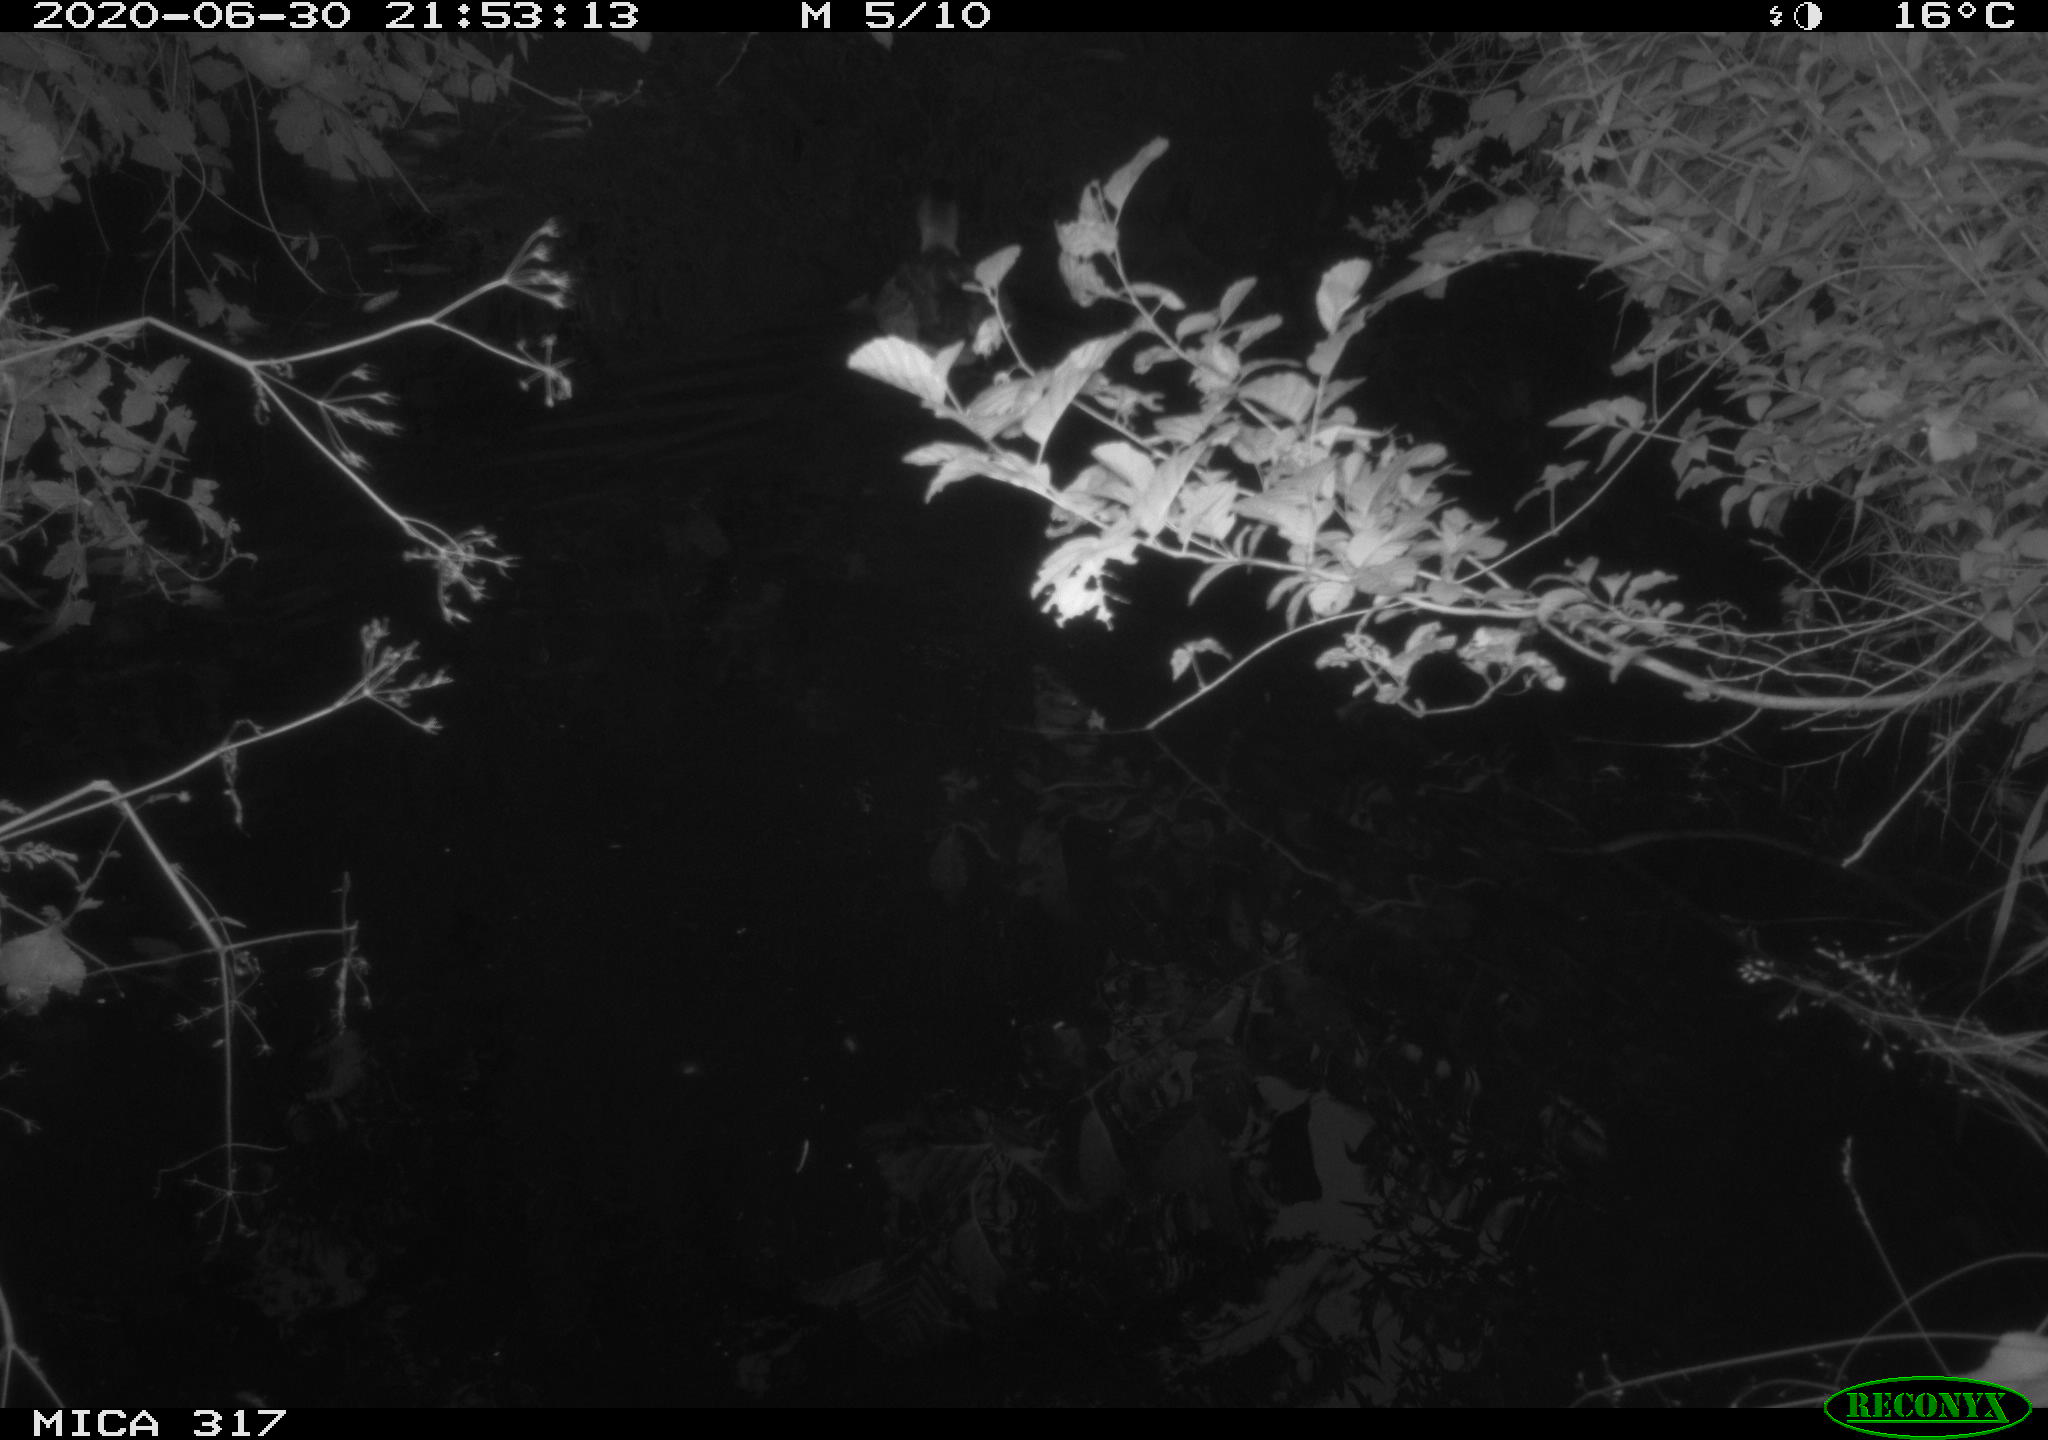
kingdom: Animalia
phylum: Chordata
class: Aves
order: Anseriformes
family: Anatidae
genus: Anas
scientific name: Anas platyrhynchos
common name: Mallard
